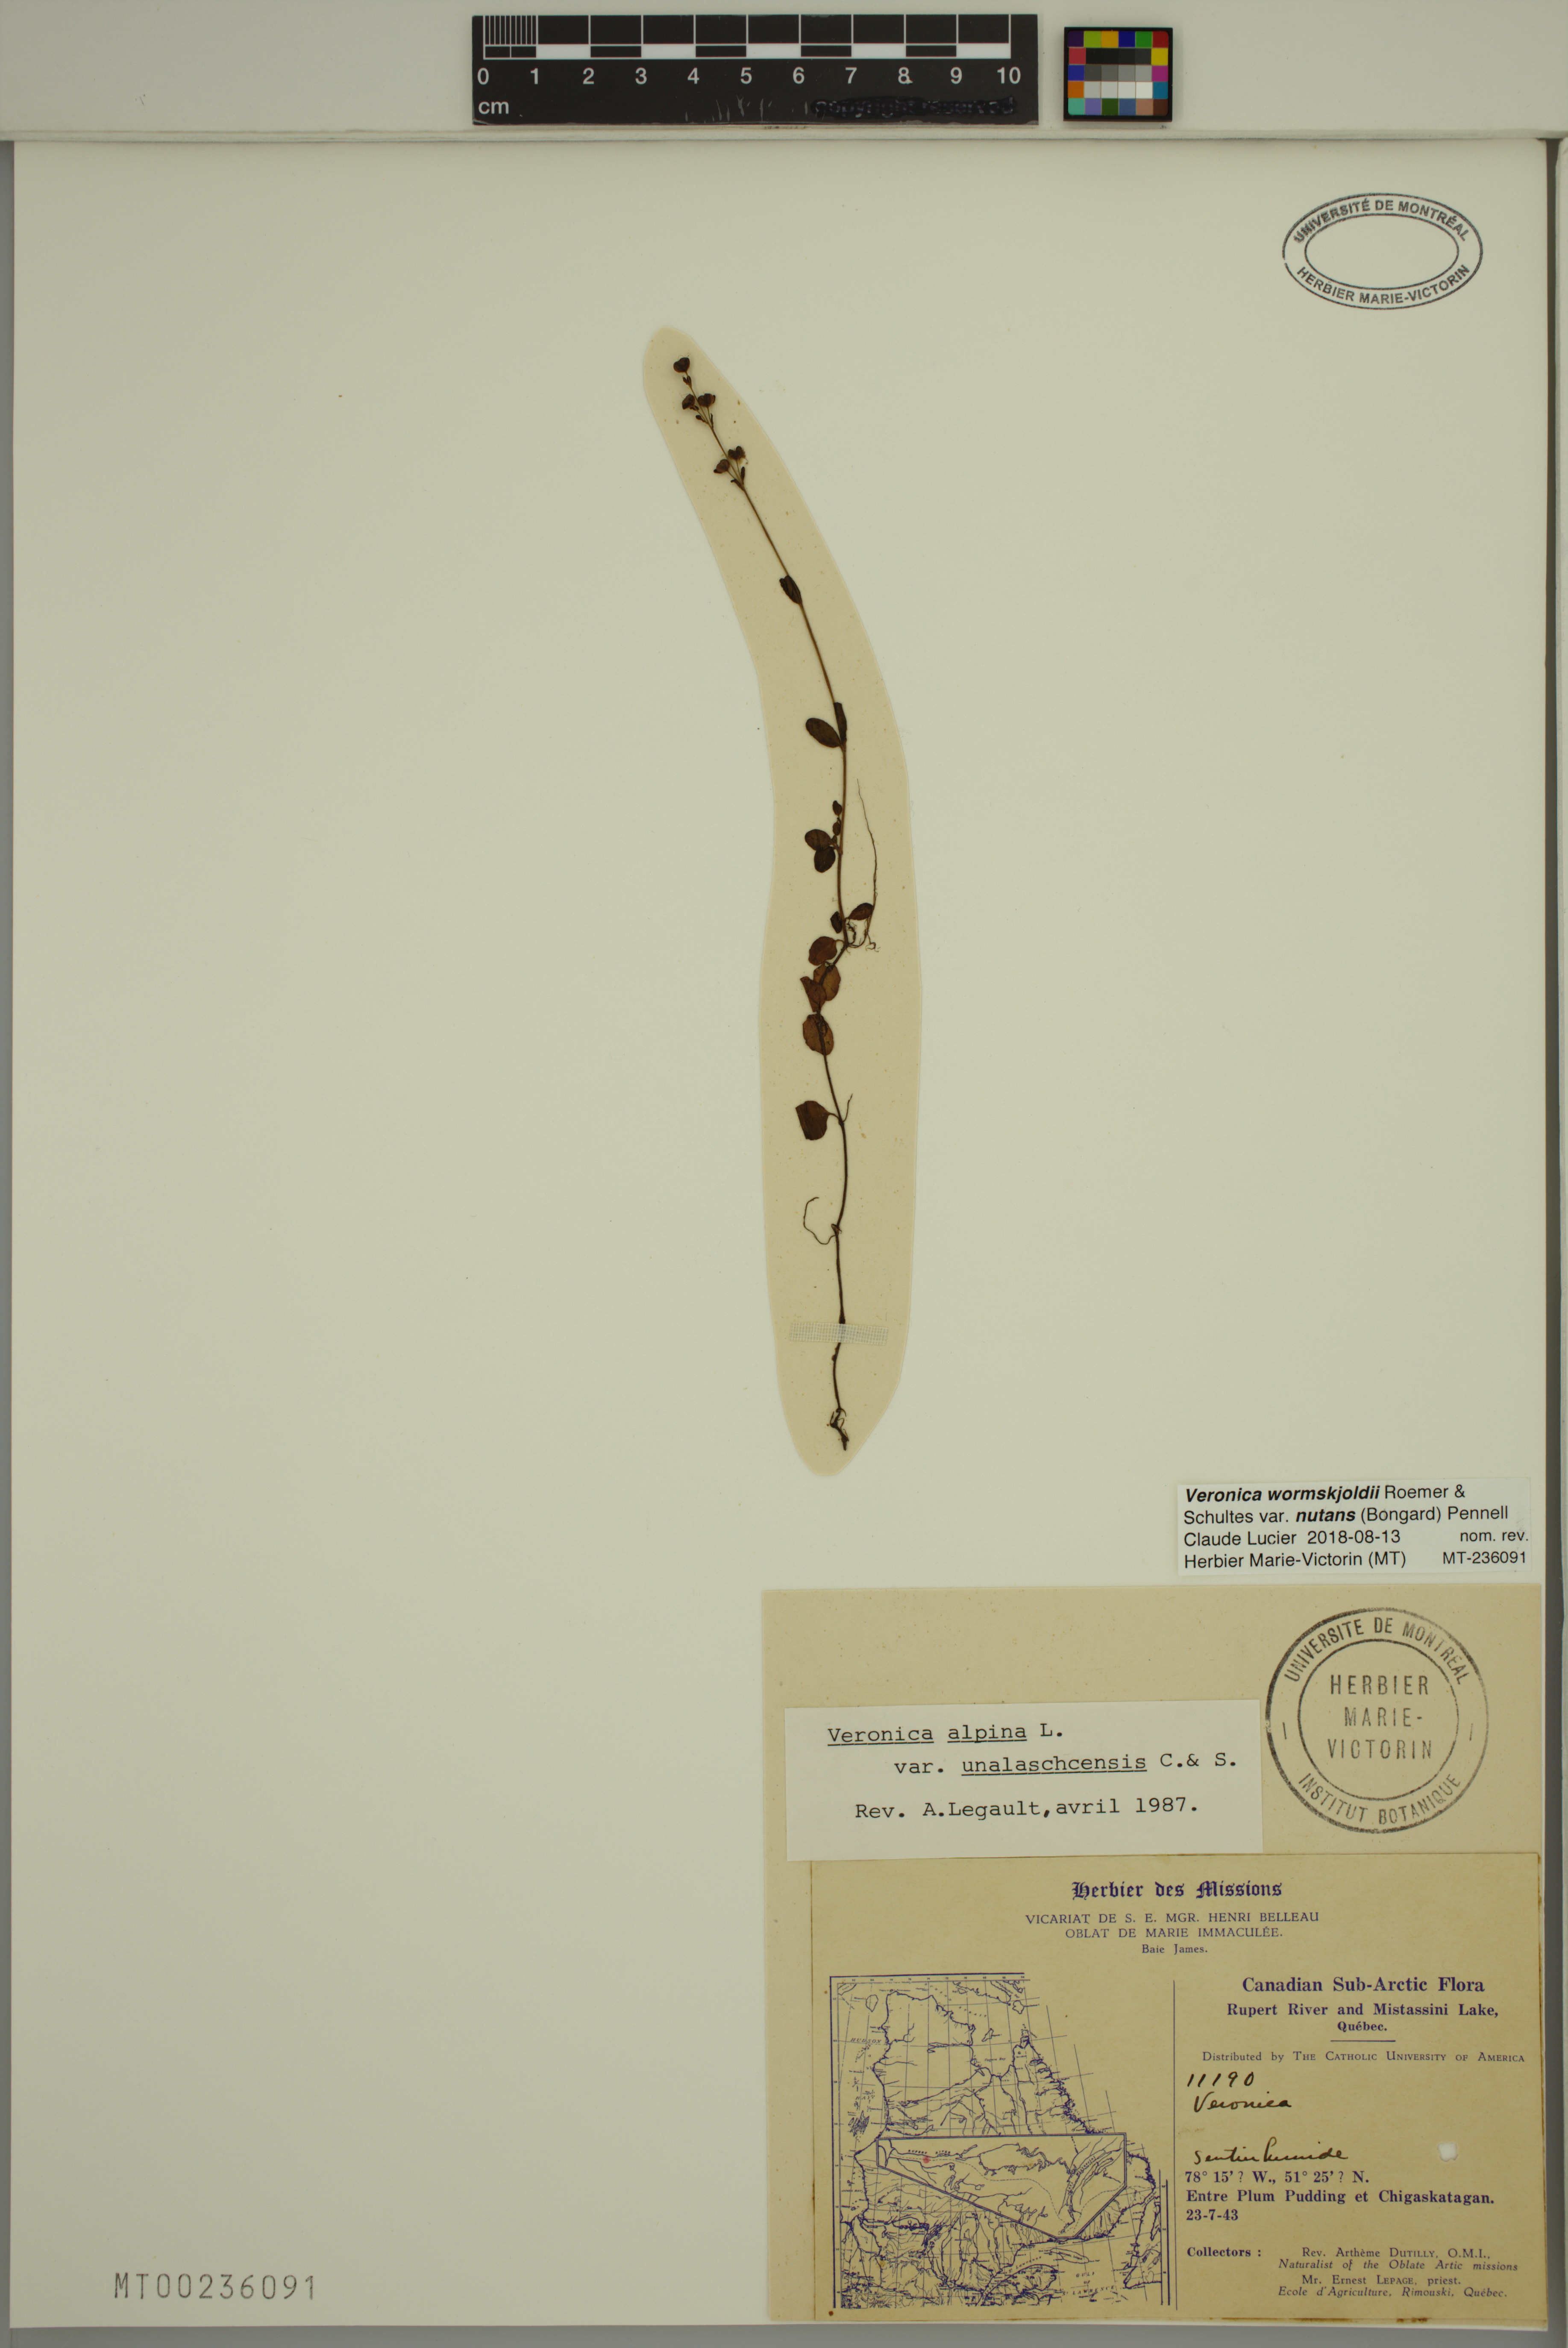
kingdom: Plantae
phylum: Tracheophyta
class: Magnoliopsida
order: Lamiales
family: Plantaginaceae
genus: Veronica
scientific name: Veronica wormskjoldii
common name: American alpine speedwell
